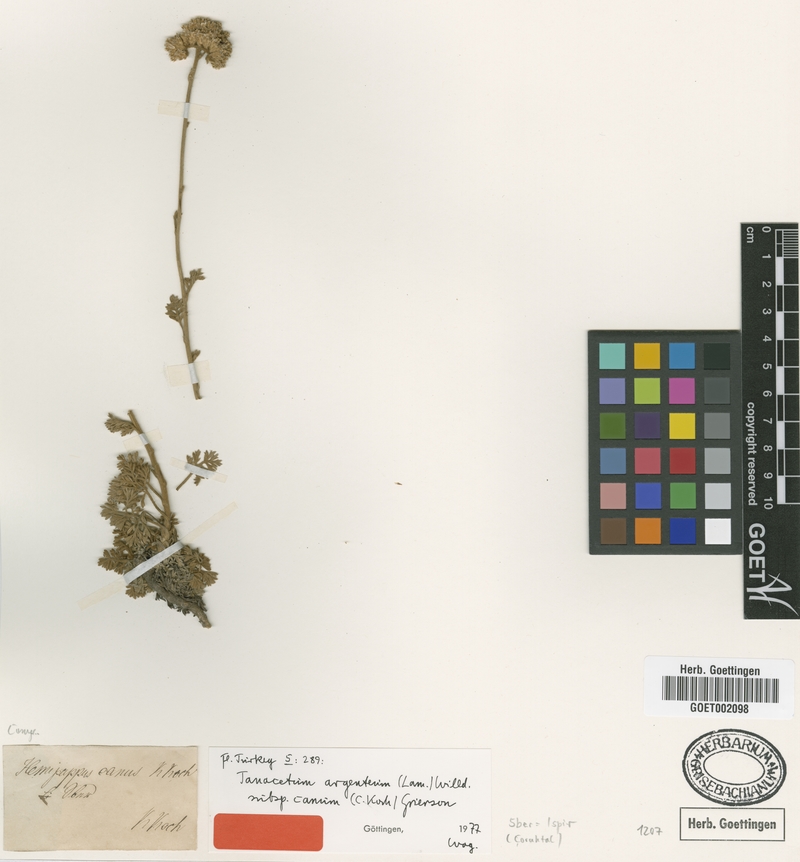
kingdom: Plantae
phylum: Tracheophyta
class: Magnoliopsida
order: Asterales
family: Asteraceae
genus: Tanacetum
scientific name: Tanacetum argenteum
